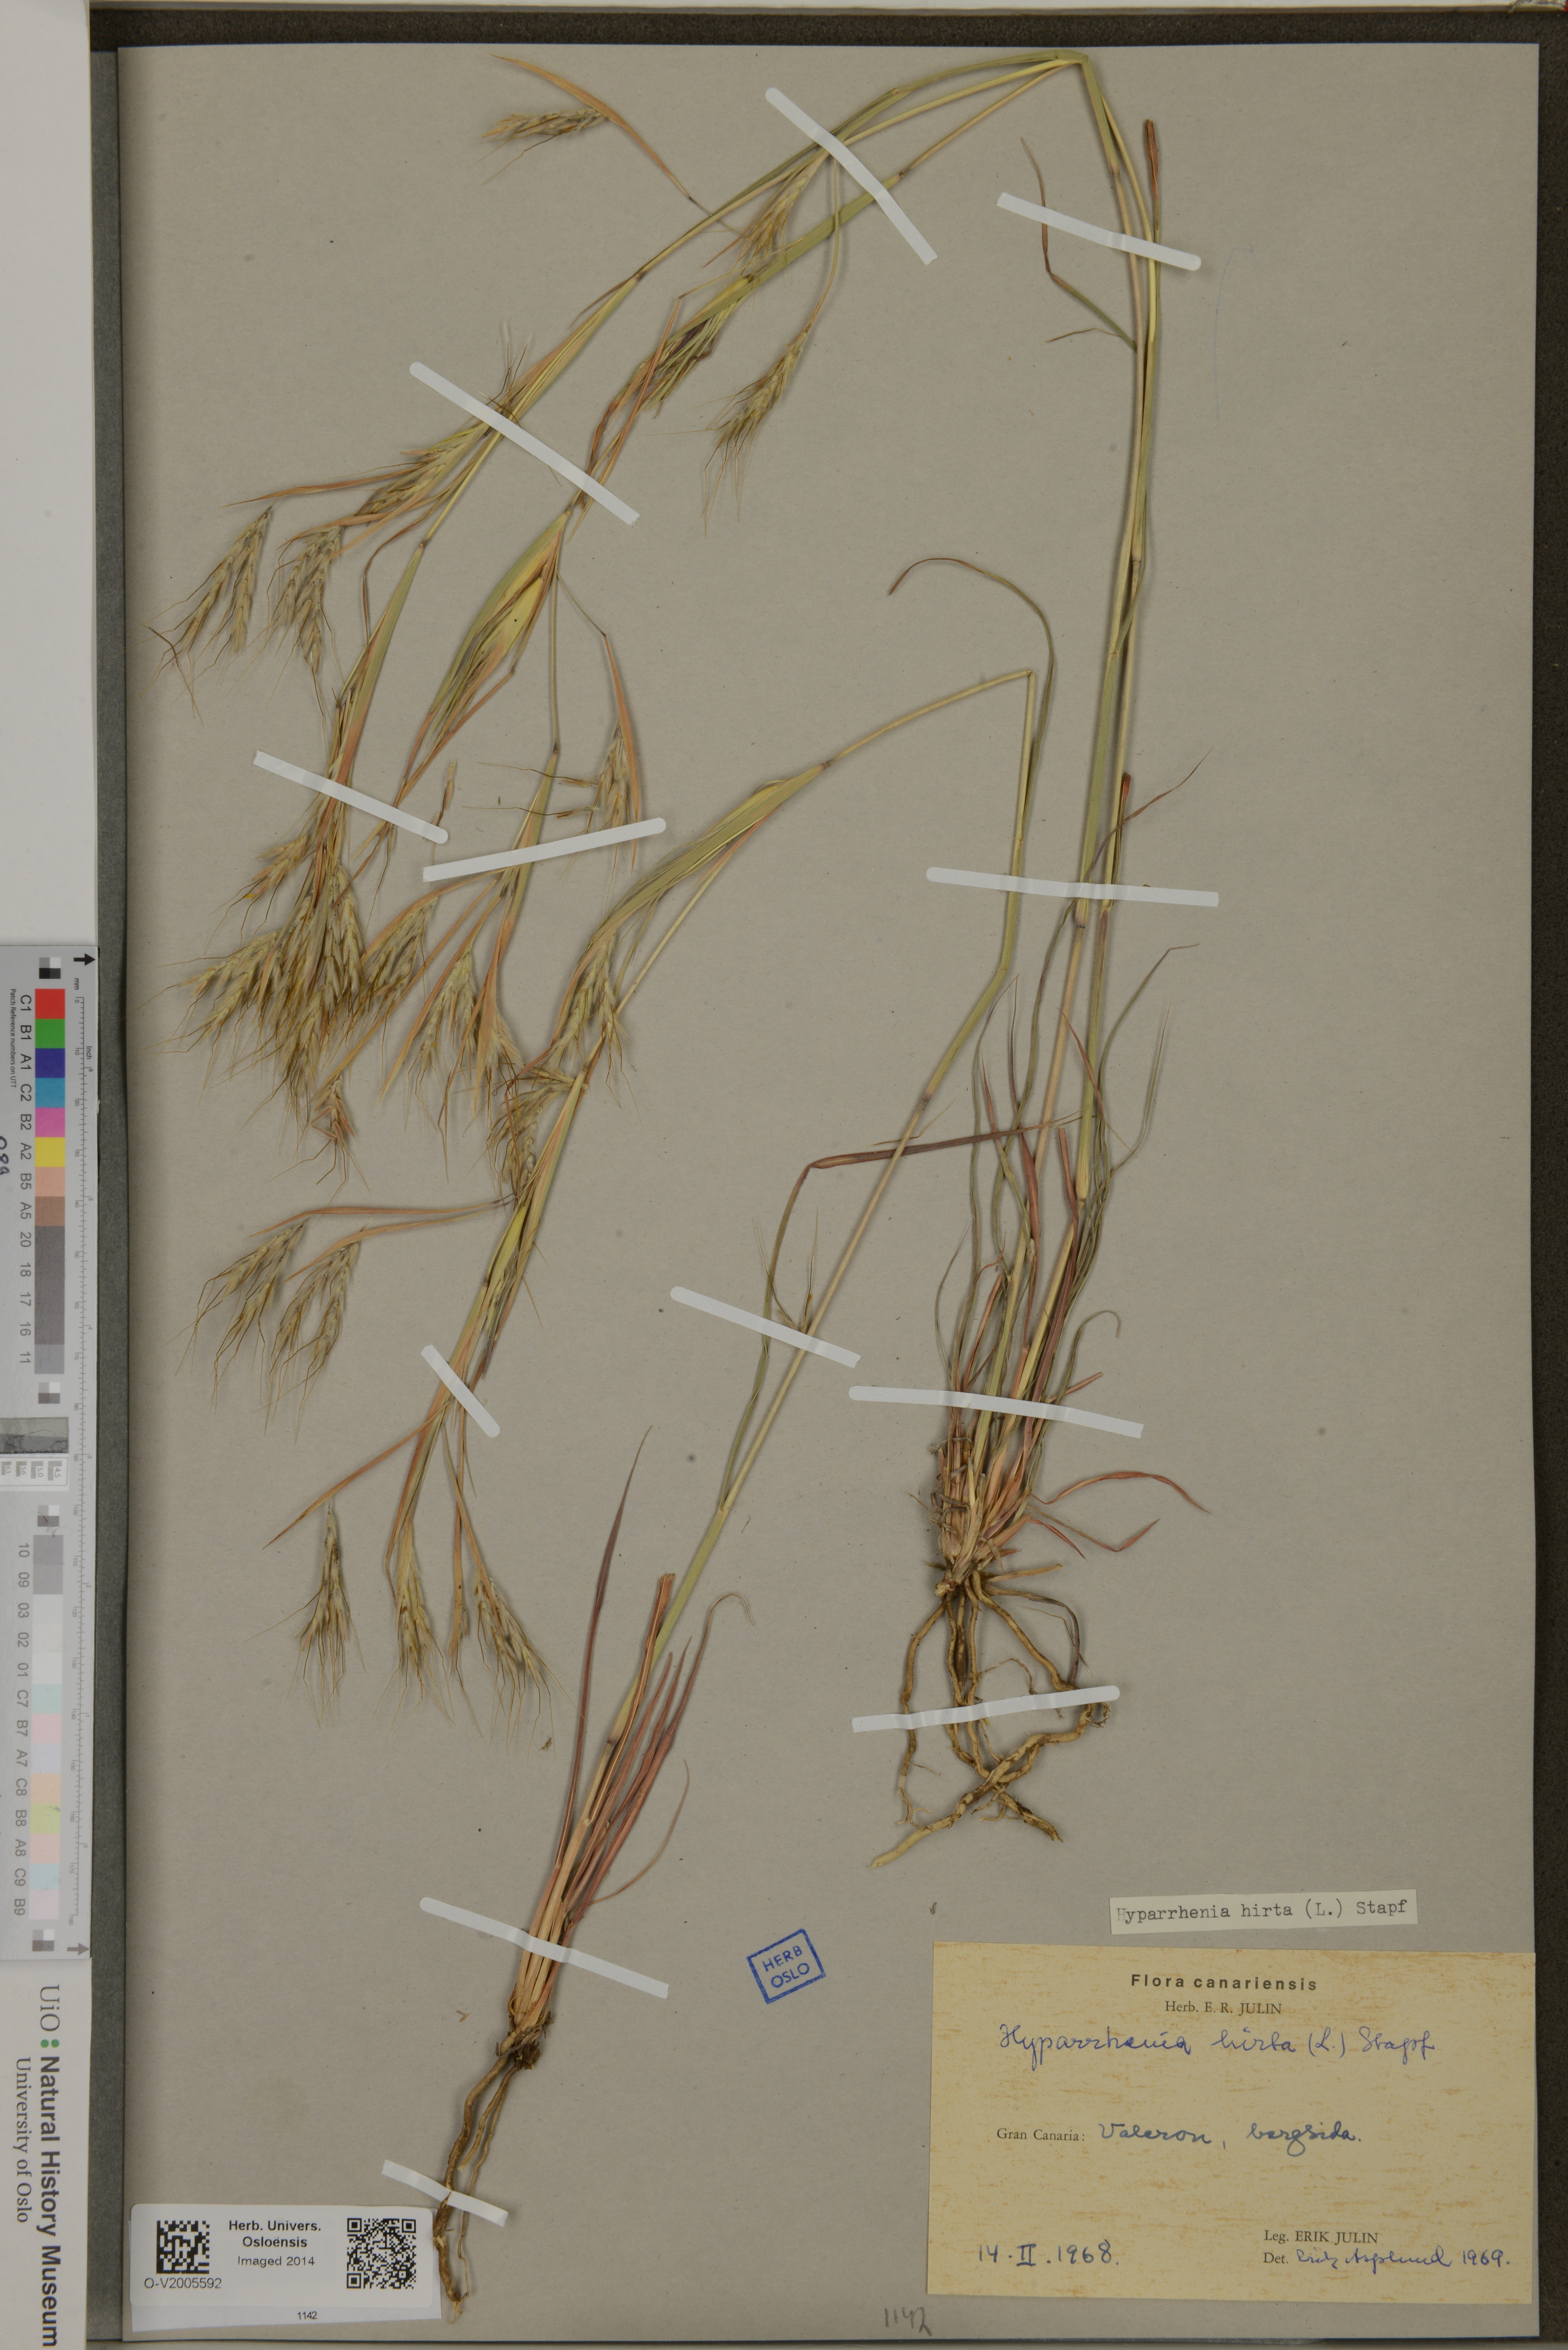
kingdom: Plantae
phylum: Tracheophyta
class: Liliopsida
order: Poales
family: Poaceae
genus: Hyparrhenia
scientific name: Hyparrhenia hirta
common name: Thatching grass
